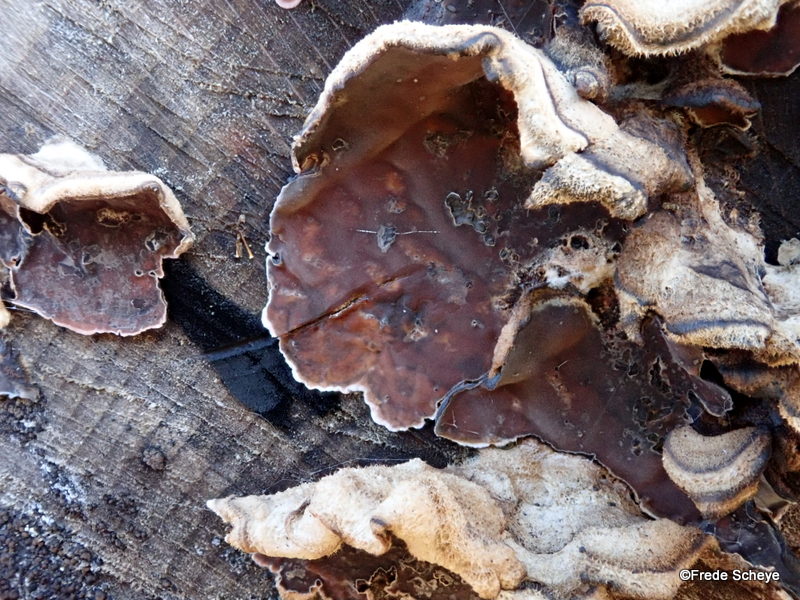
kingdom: Fungi
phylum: Basidiomycota
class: Agaricomycetes
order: Agaricales
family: Cyphellaceae
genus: Chondrostereum
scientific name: Chondrostereum purpureum
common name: purpurlædersvamp
